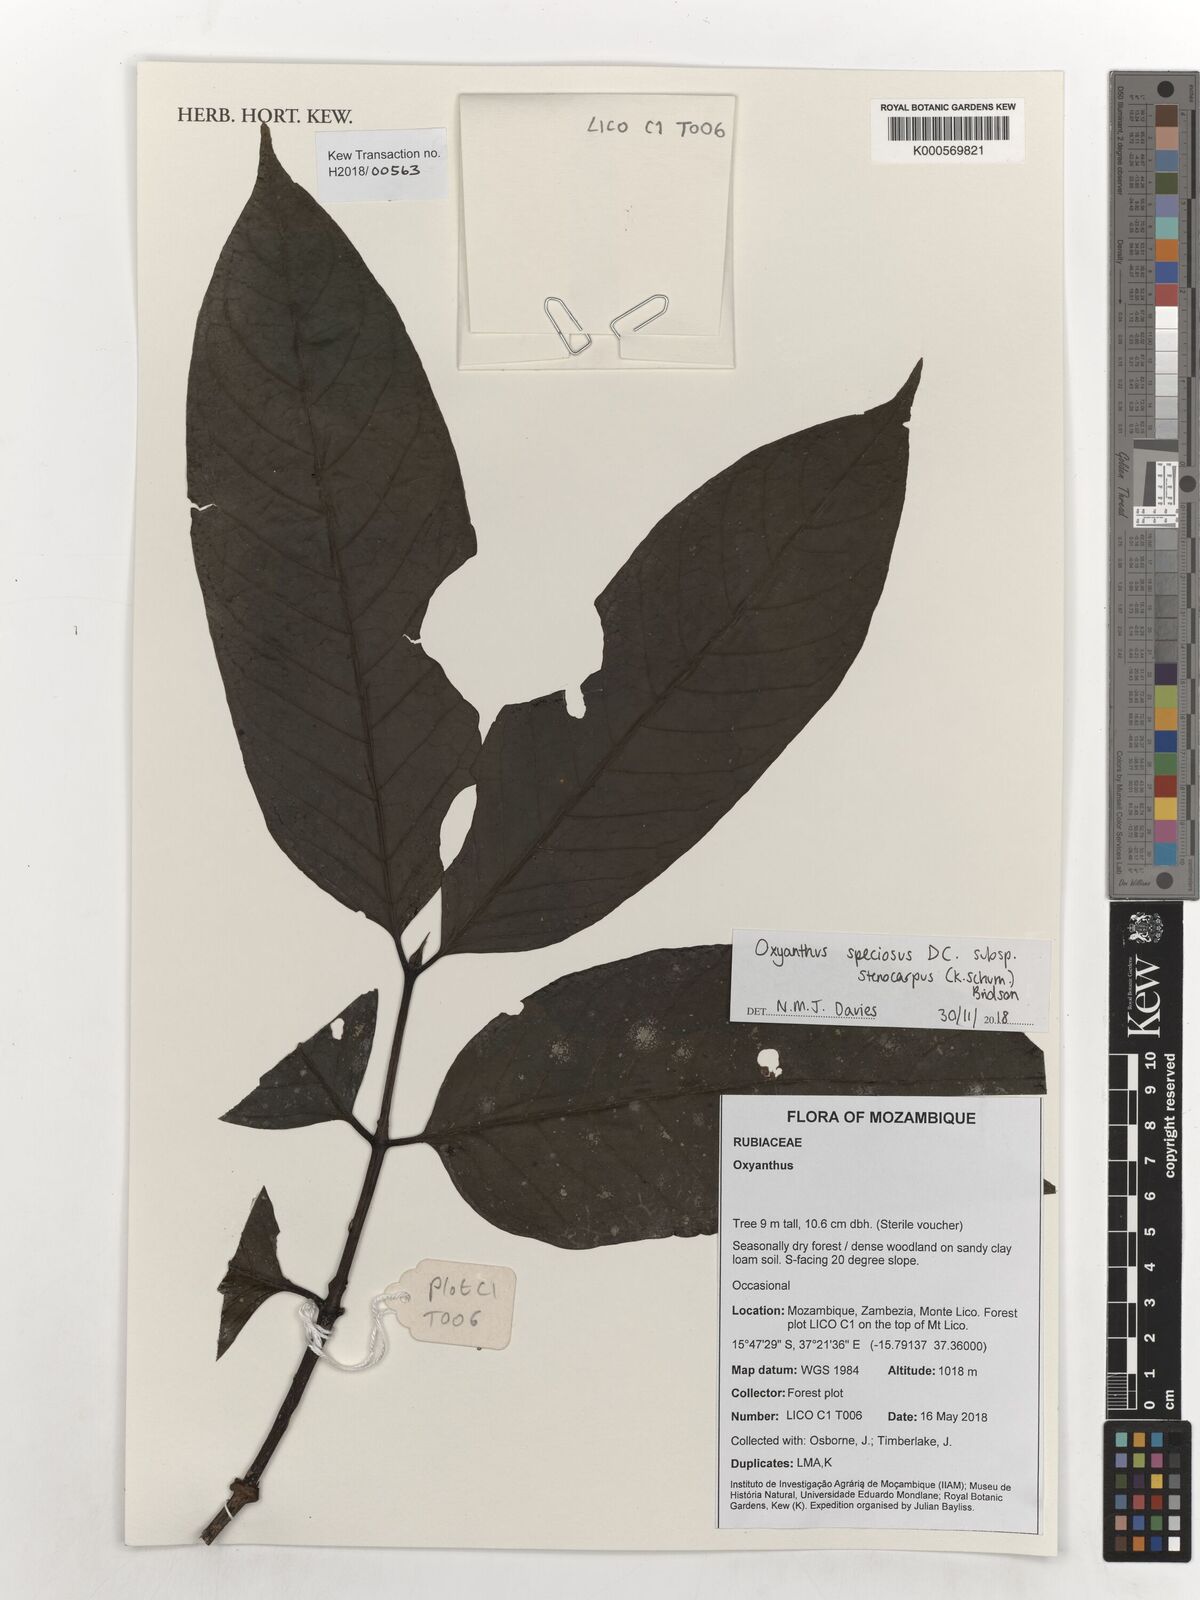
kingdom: Plantae
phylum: Tracheophyta
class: Magnoliopsida
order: Gentianales
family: Rubiaceae
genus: Oxyanthus
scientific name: Oxyanthus speciosus
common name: Whipstick loquat
